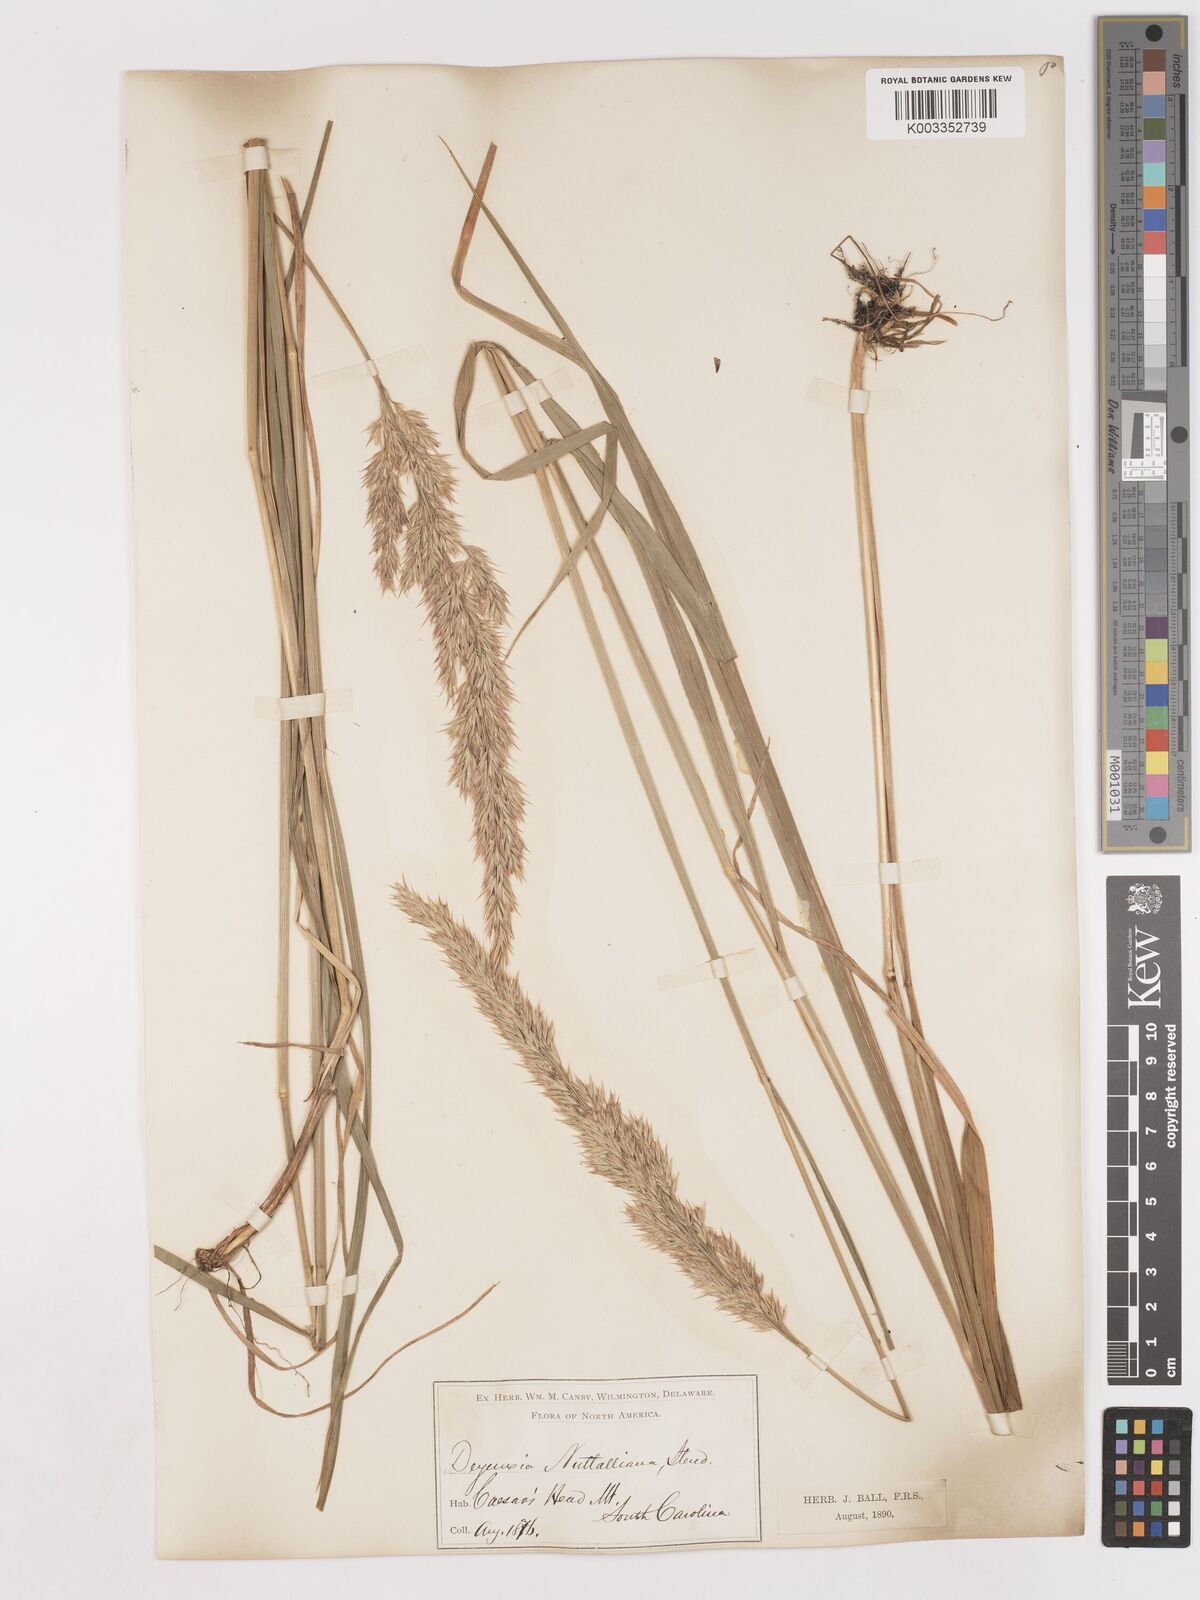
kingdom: Plantae
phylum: Tracheophyta
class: Liliopsida
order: Poales
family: Poaceae
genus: Calamagrostis
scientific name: Calamagrostis canadensis
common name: Canada bluejoint
